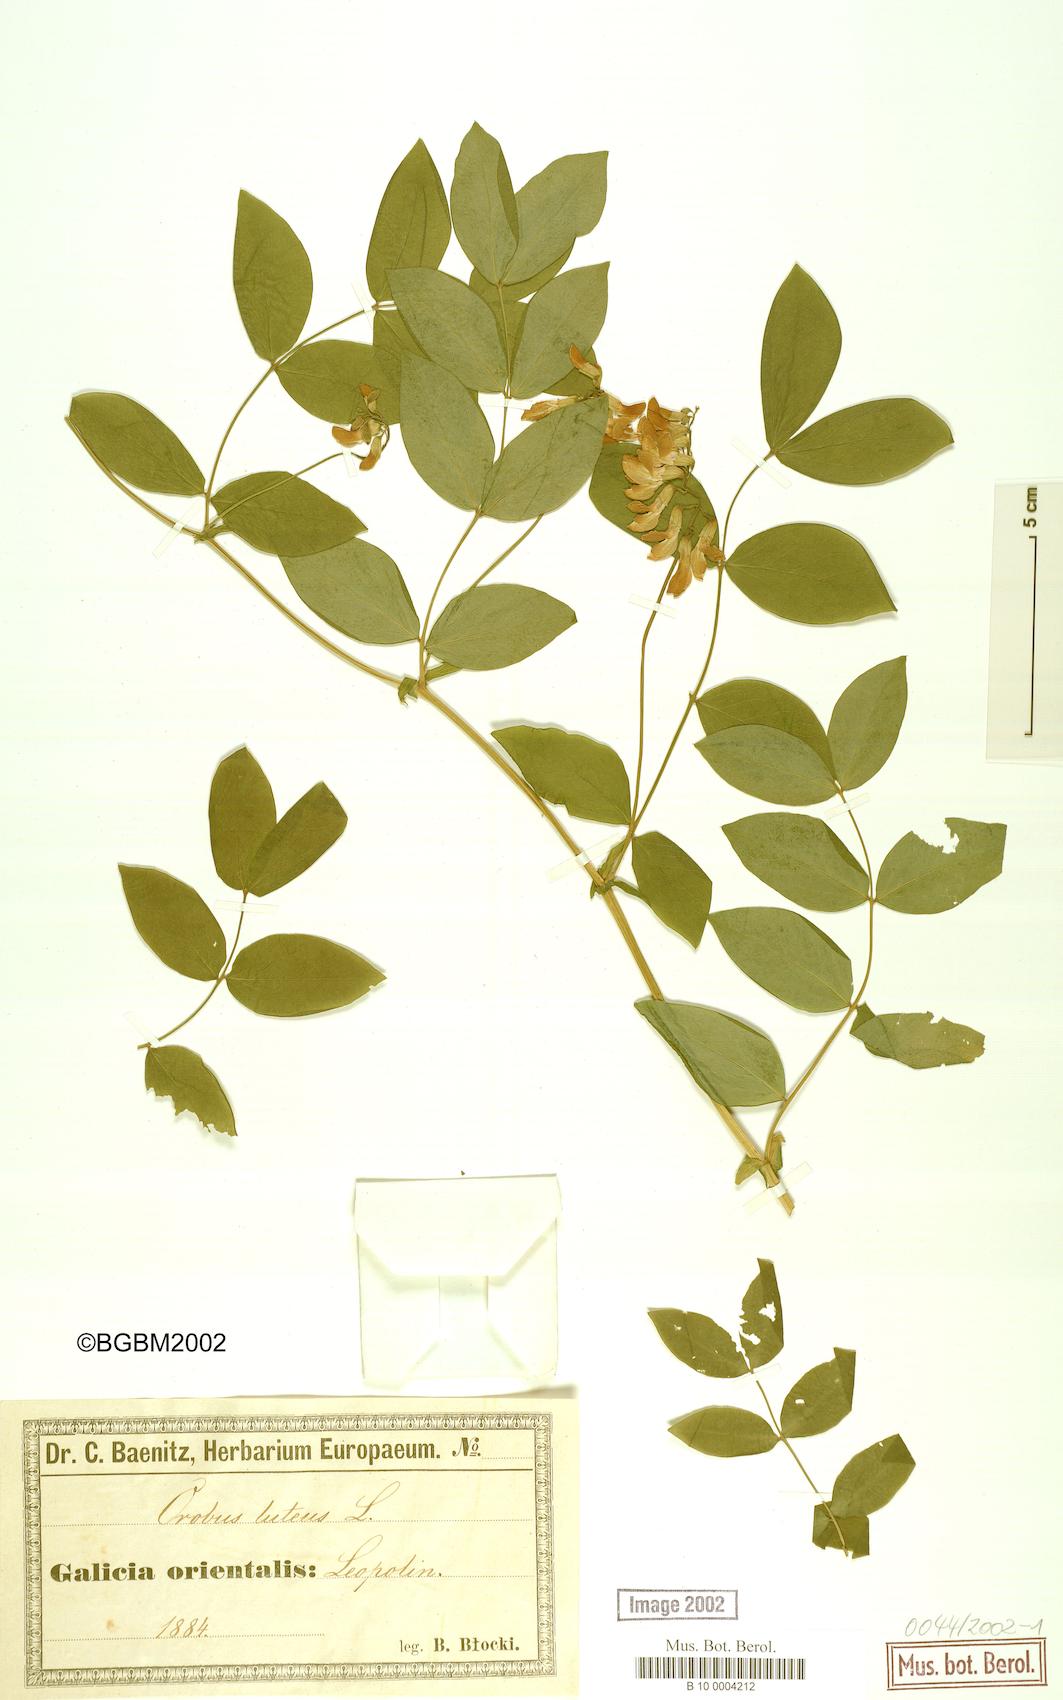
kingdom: Plantae
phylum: Tracheophyta
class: Magnoliopsida
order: Fabales
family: Fabaceae
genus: Lathyrus
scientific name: Lathyrus
